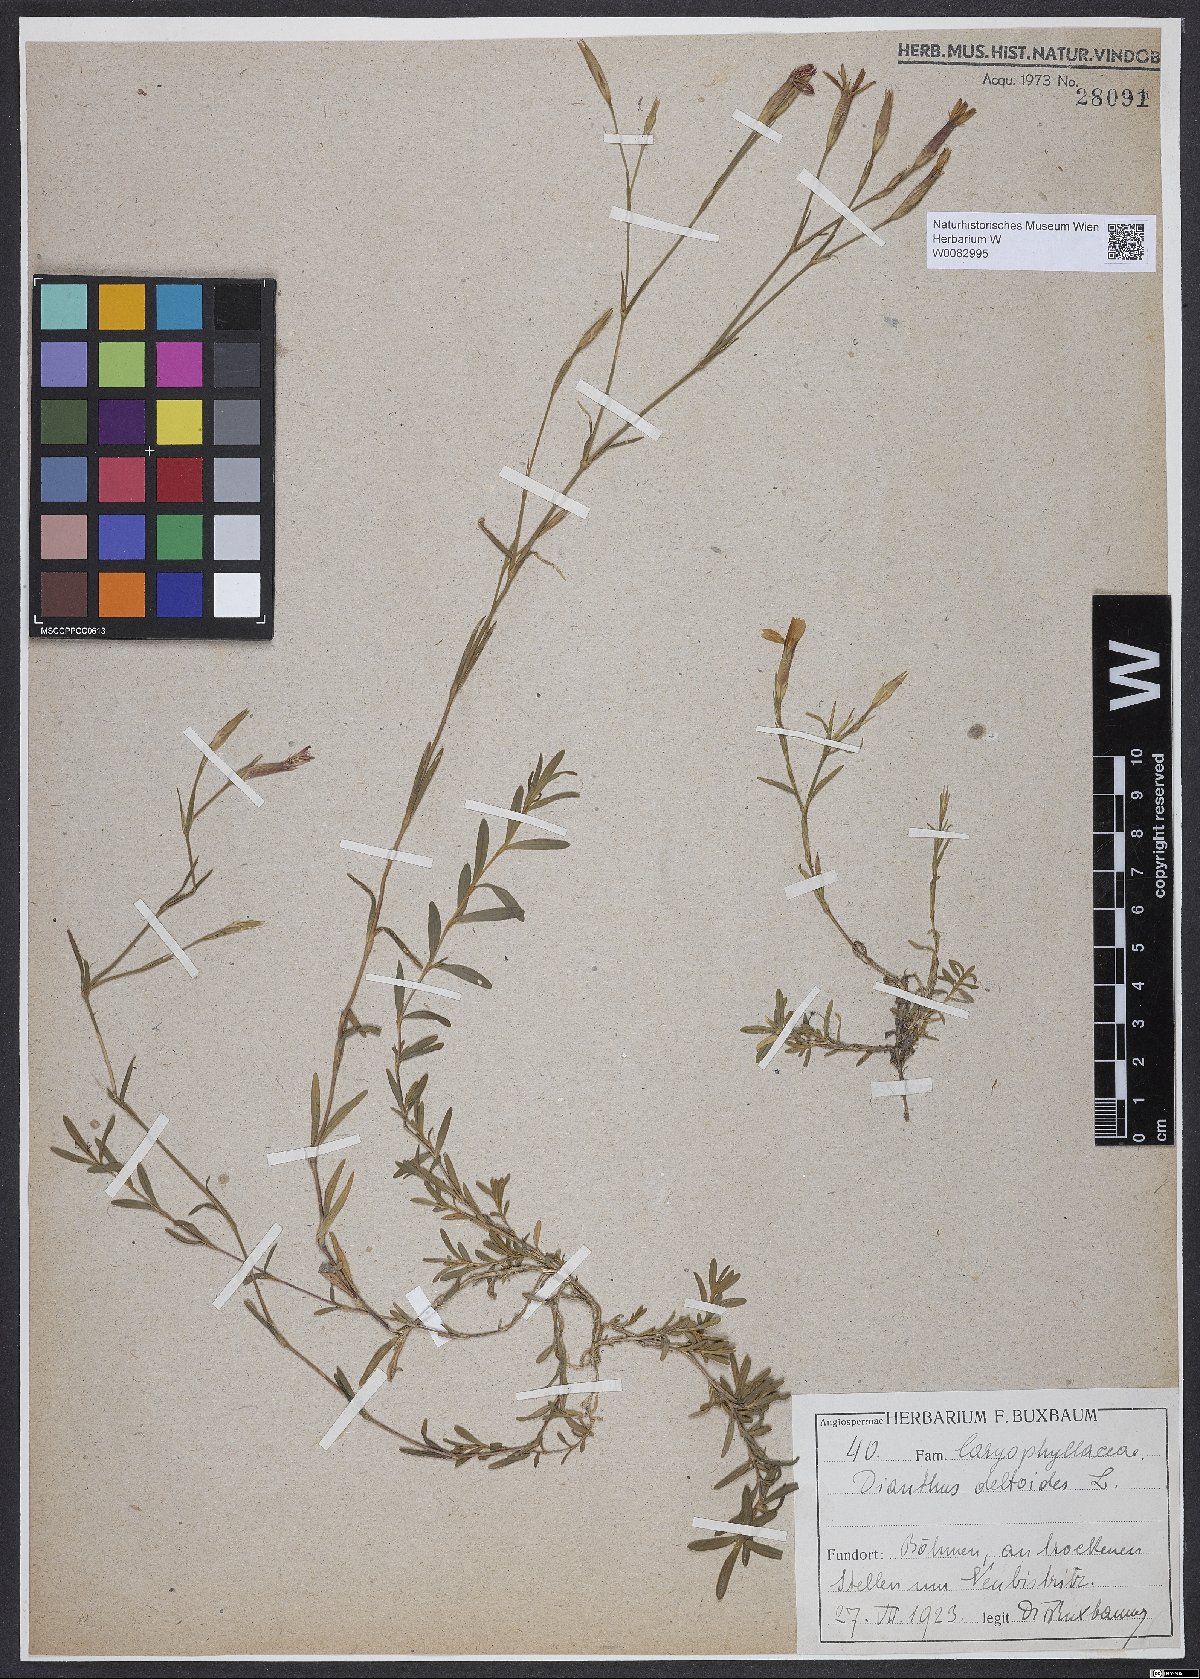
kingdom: Plantae
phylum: Tracheophyta
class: Magnoliopsida
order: Caryophyllales
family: Caryophyllaceae
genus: Dianthus
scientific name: Dianthus deltoides
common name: Maiden pink
